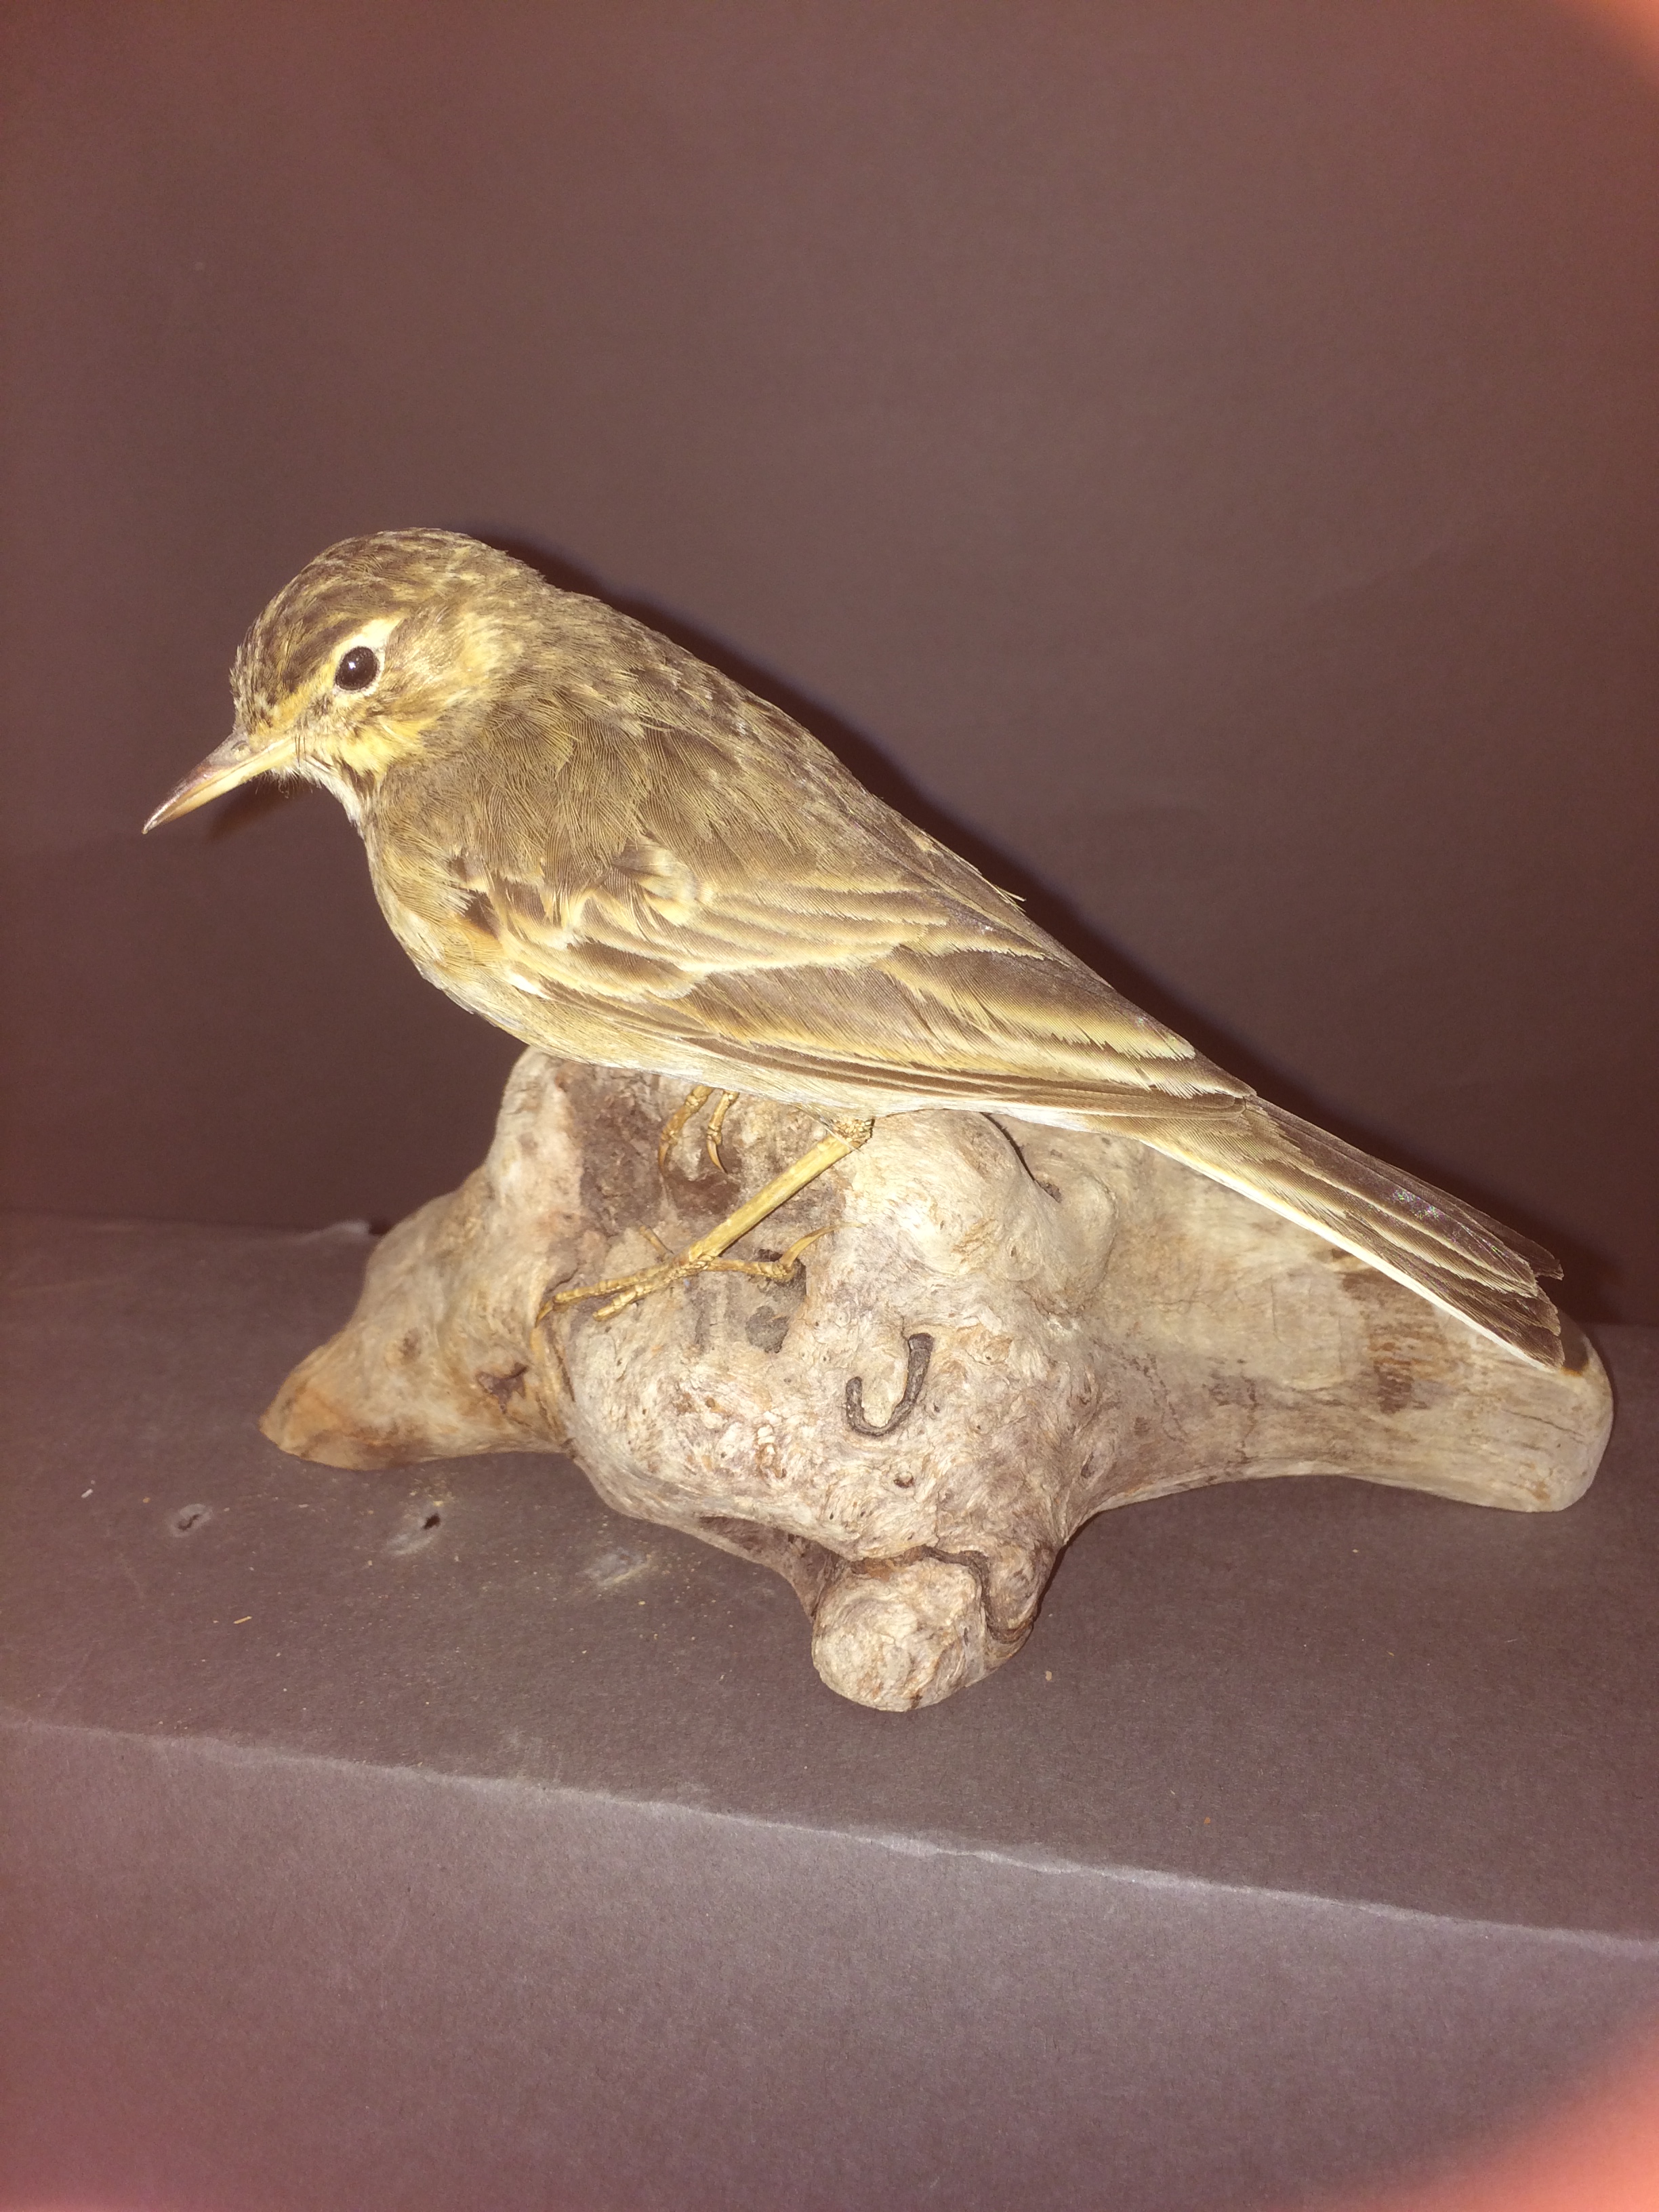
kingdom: Animalia
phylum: Chordata
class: Aves
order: Passeriformes
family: Motacillidae
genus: Anthus
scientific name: Anthus pratensis
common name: Meadow pipit
